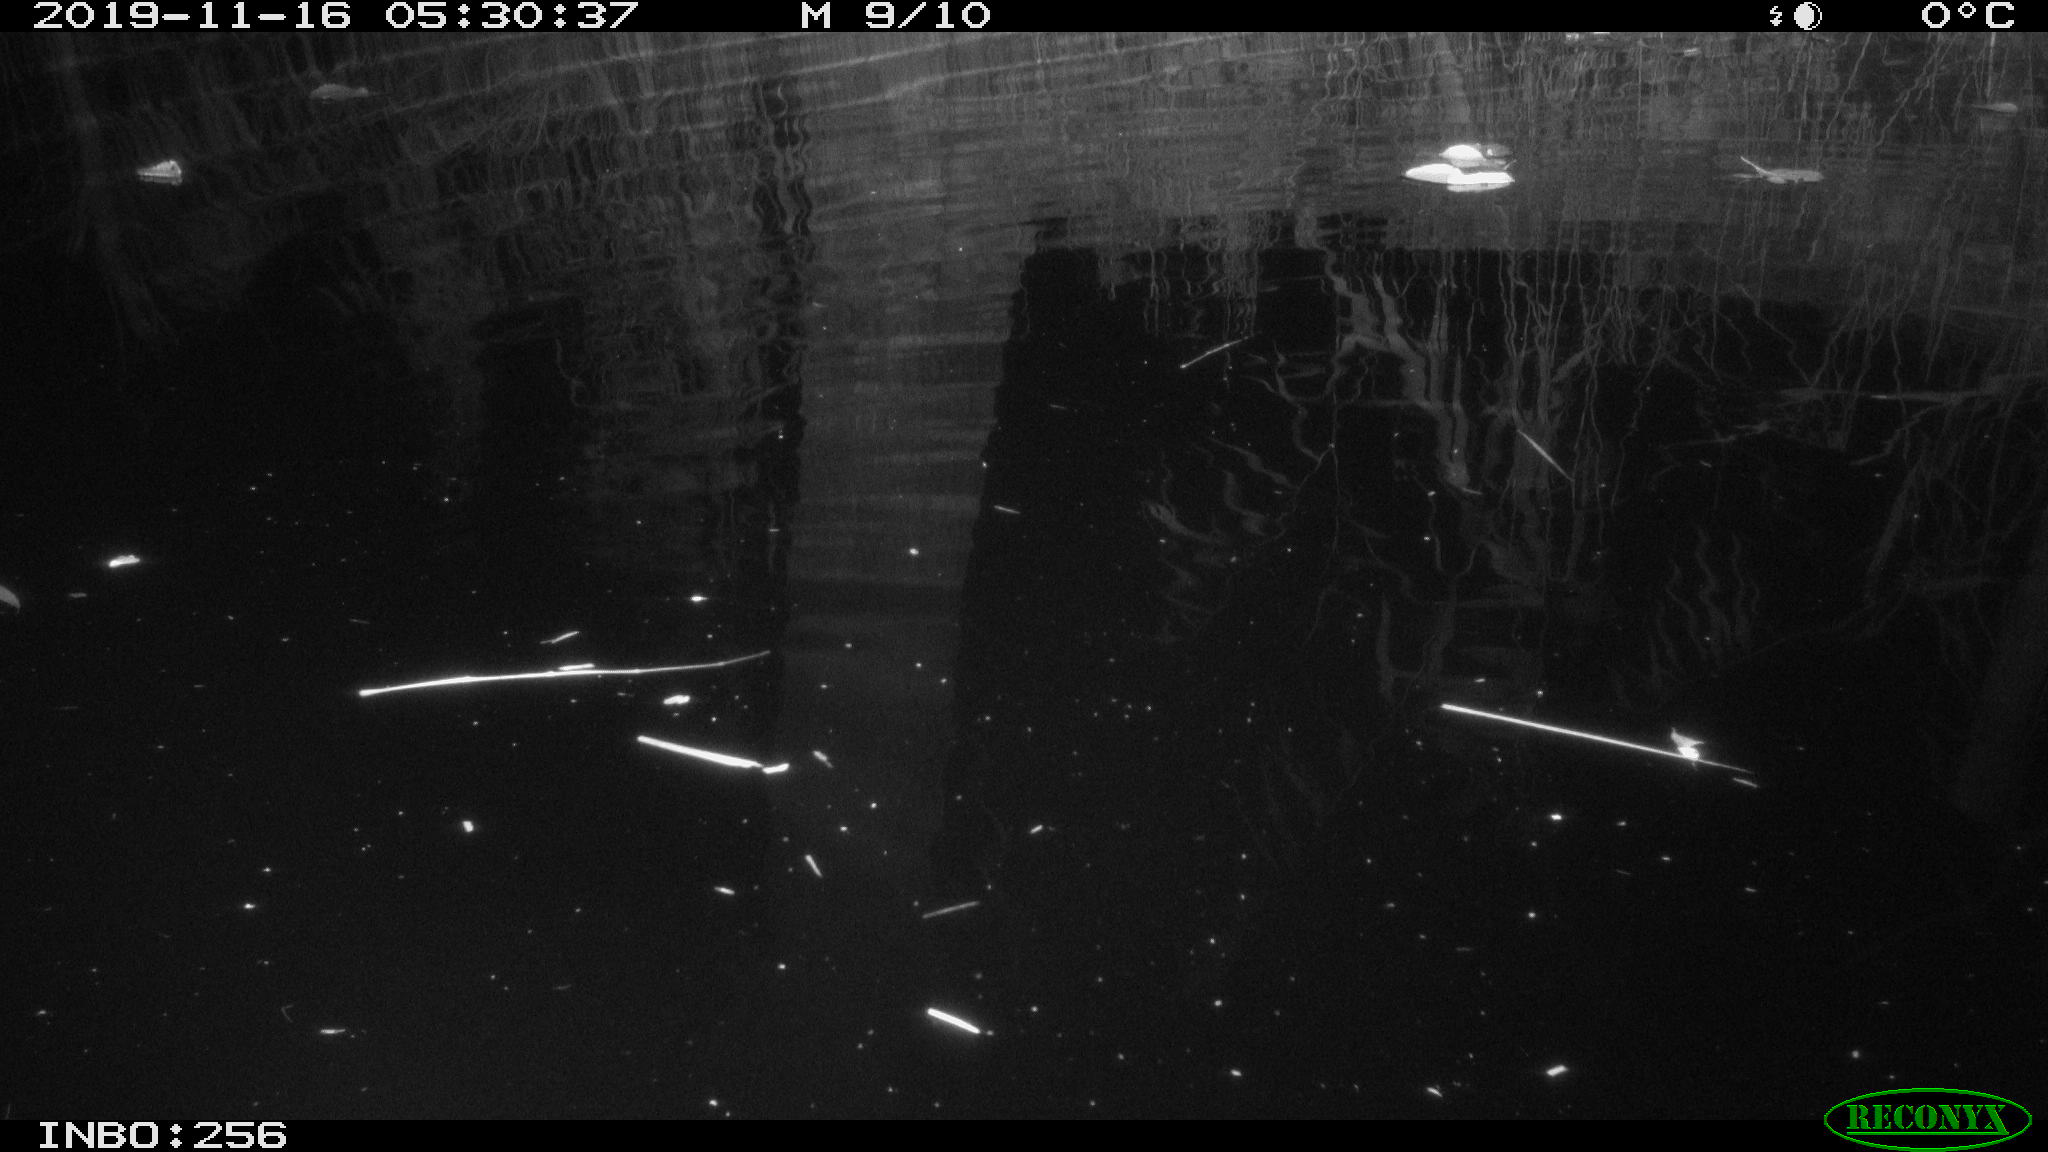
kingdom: Animalia
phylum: Chordata
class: Mammalia
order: Rodentia
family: Muridae
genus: Rattus
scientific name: Rattus norvegicus
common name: Brown rat
